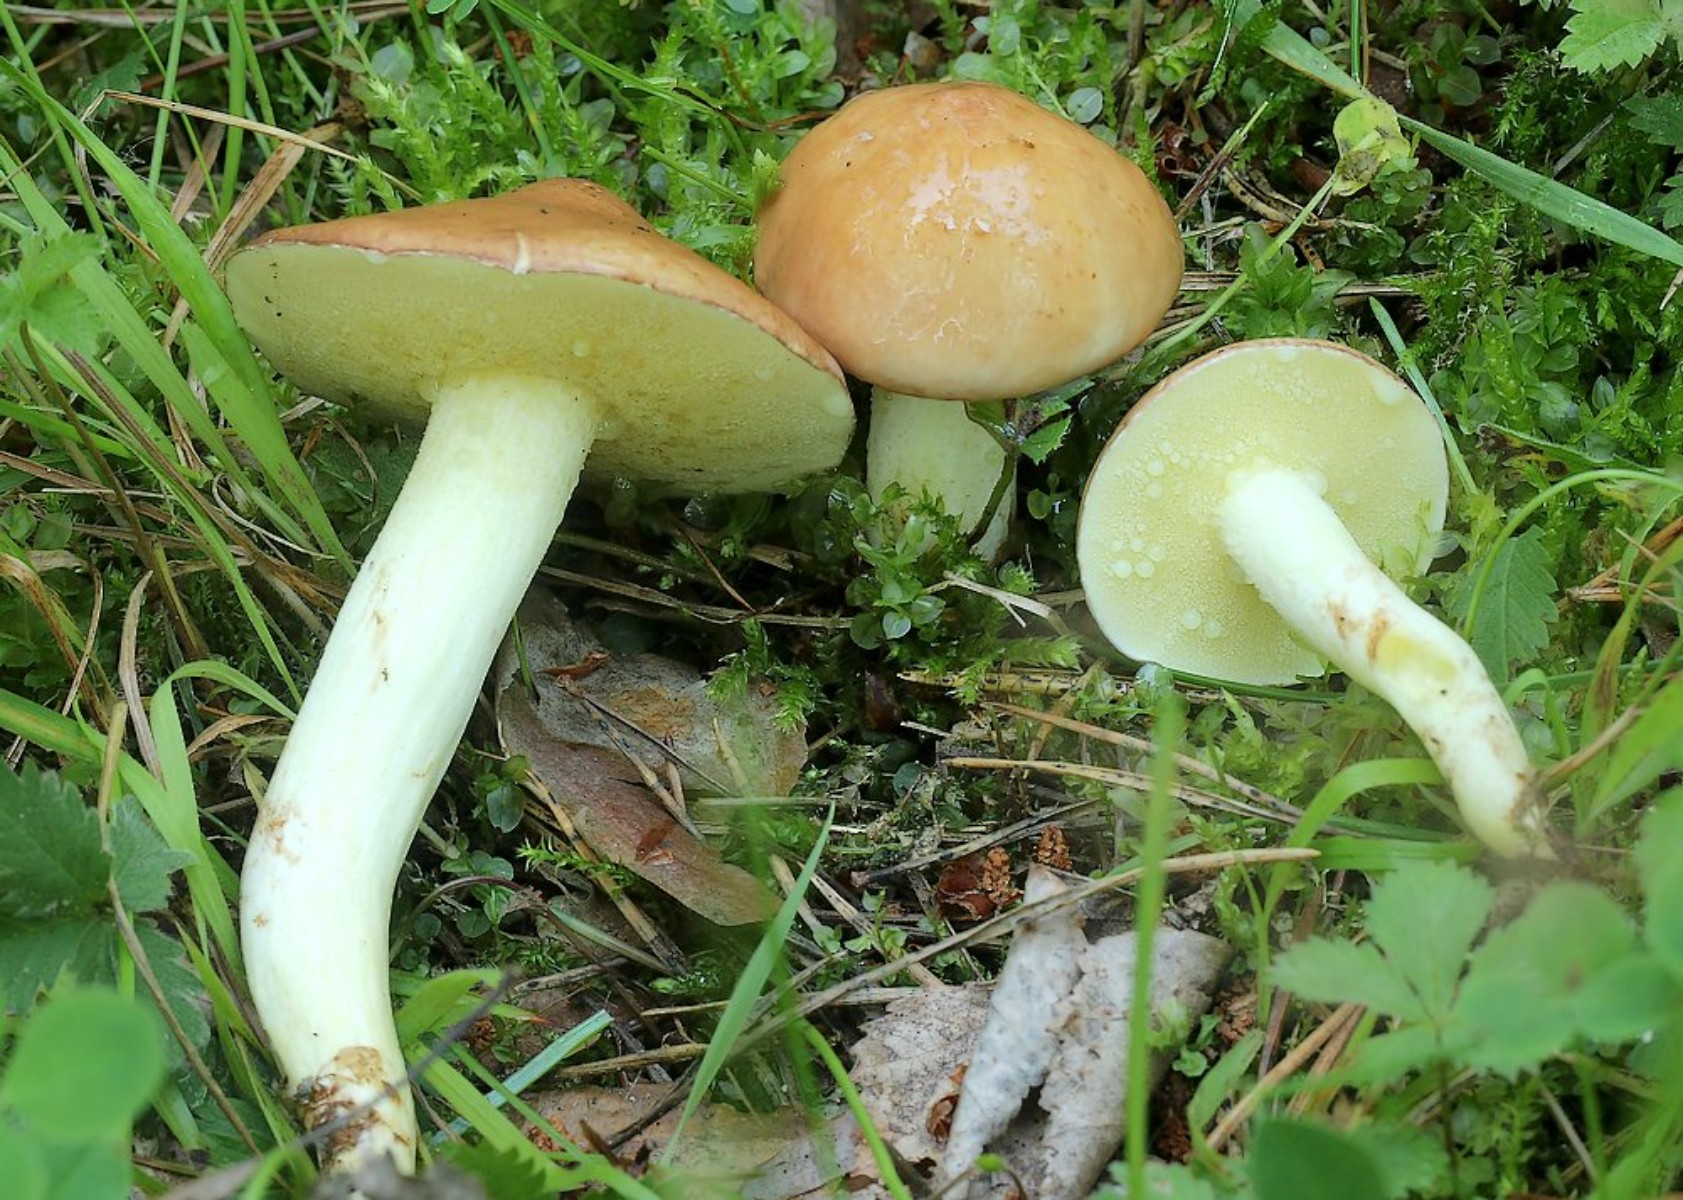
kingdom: Fungi
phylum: Basidiomycota
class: Agaricomycetes
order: Boletales
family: Suillaceae
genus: Suillus
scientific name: Suillus granulatus
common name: kornet slimrørhat
